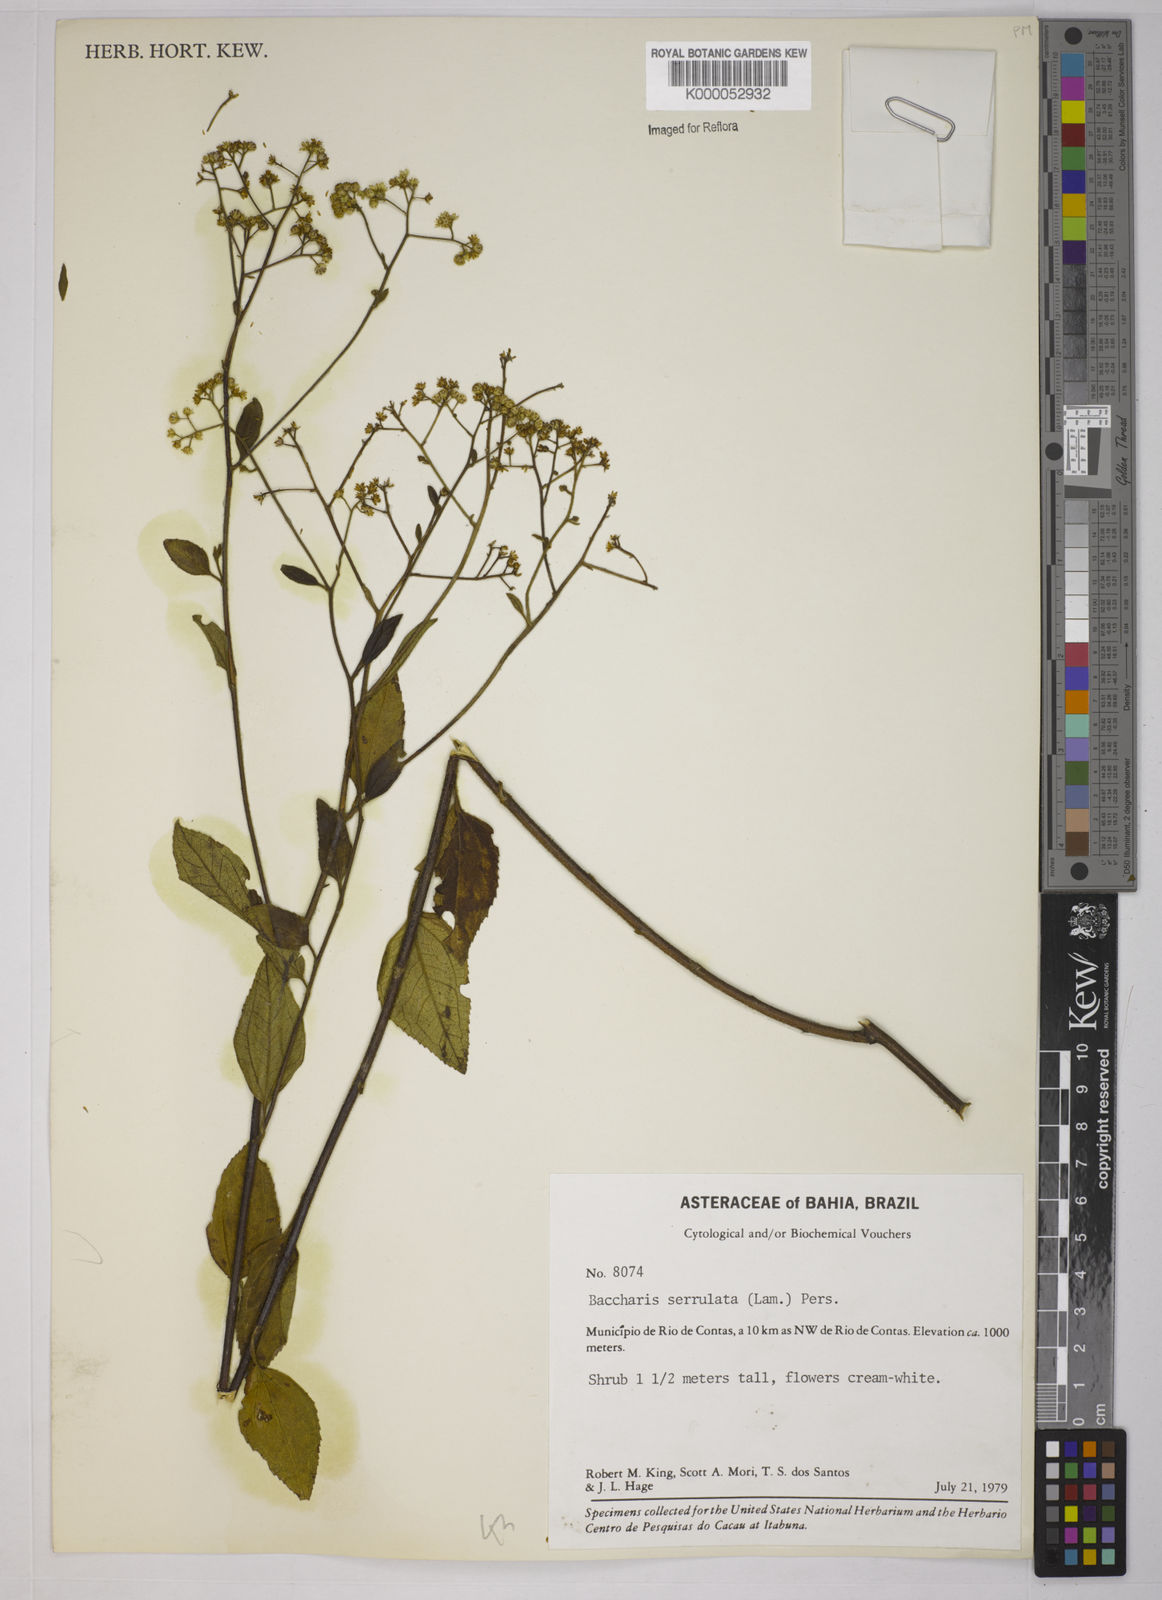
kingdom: Plantae
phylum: Tracheophyta
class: Magnoliopsida
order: Asterales
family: Asteraceae
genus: Baccharis
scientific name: Baccharis serrulata
